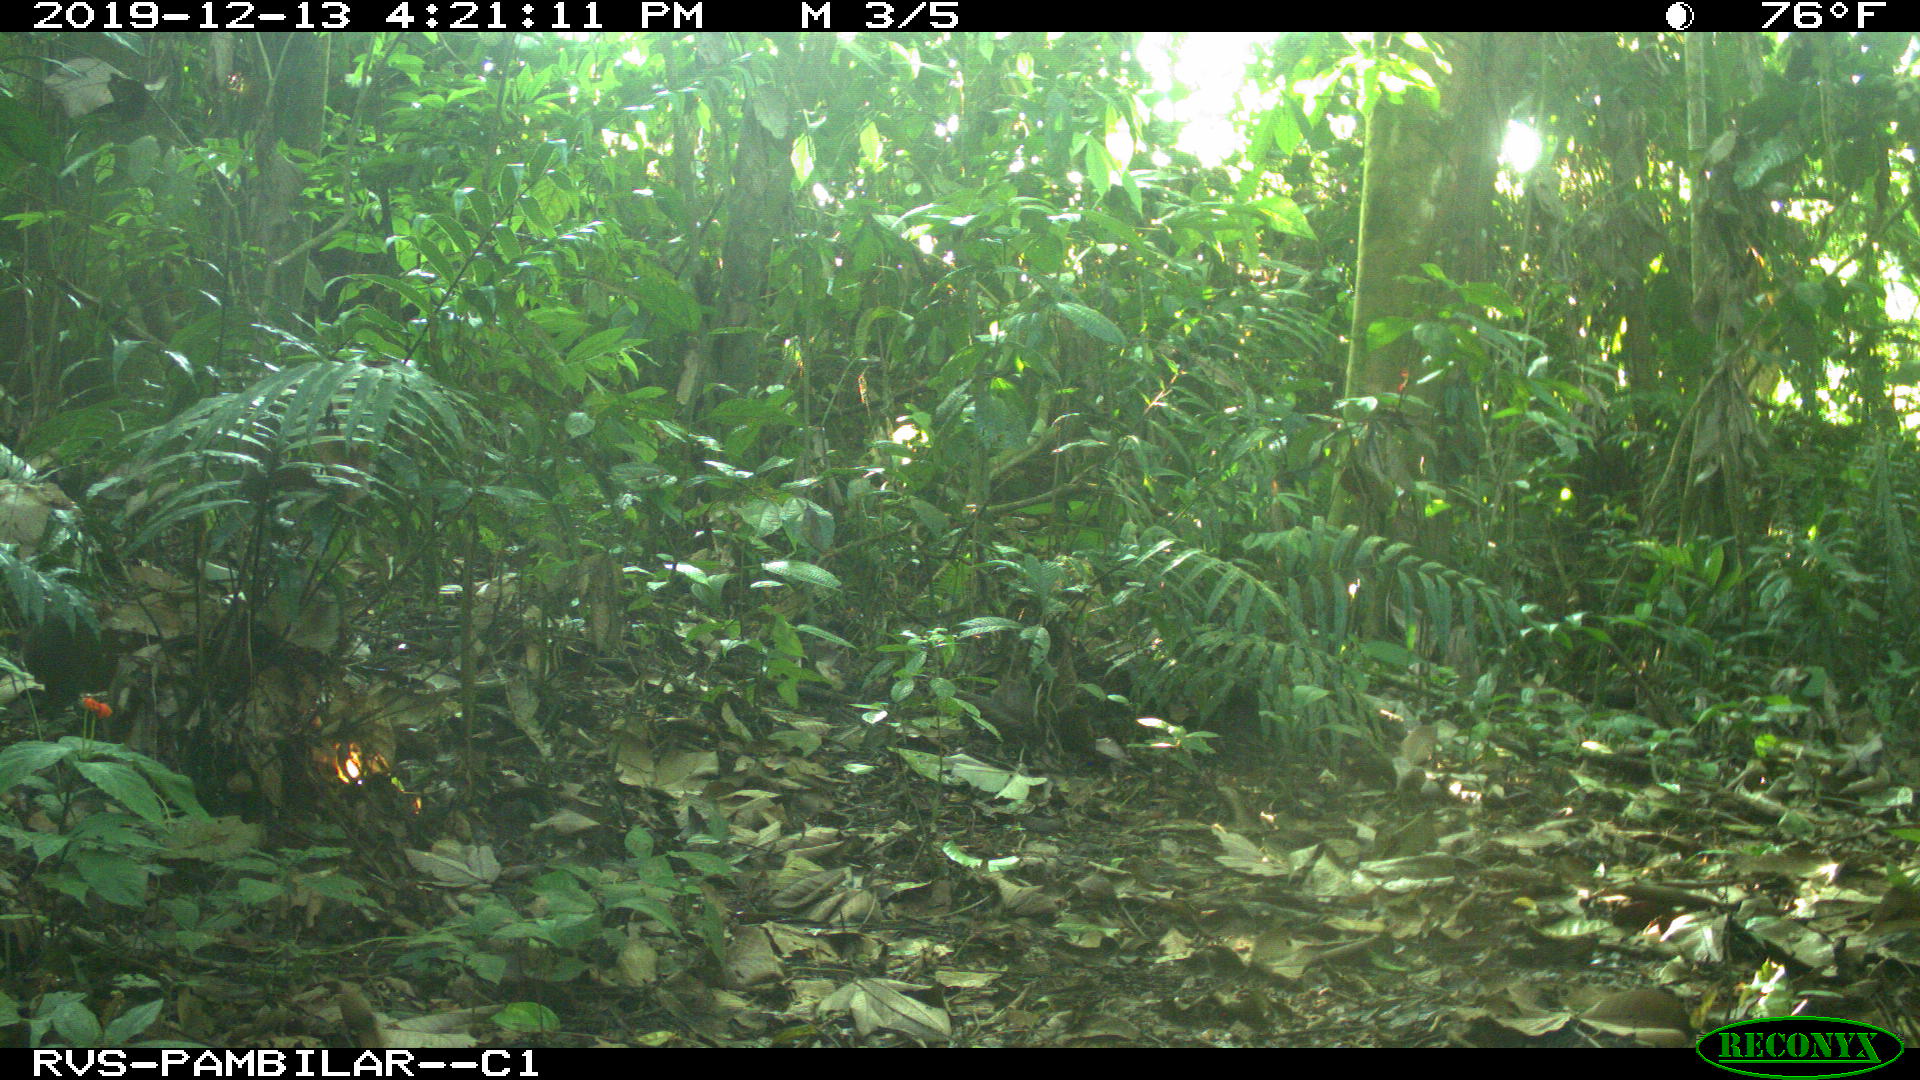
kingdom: Animalia
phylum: Chordata
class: Mammalia
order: Rodentia
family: Dasyproctidae
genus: Dasyprocta
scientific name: Dasyprocta punctata
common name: Central american agouti
